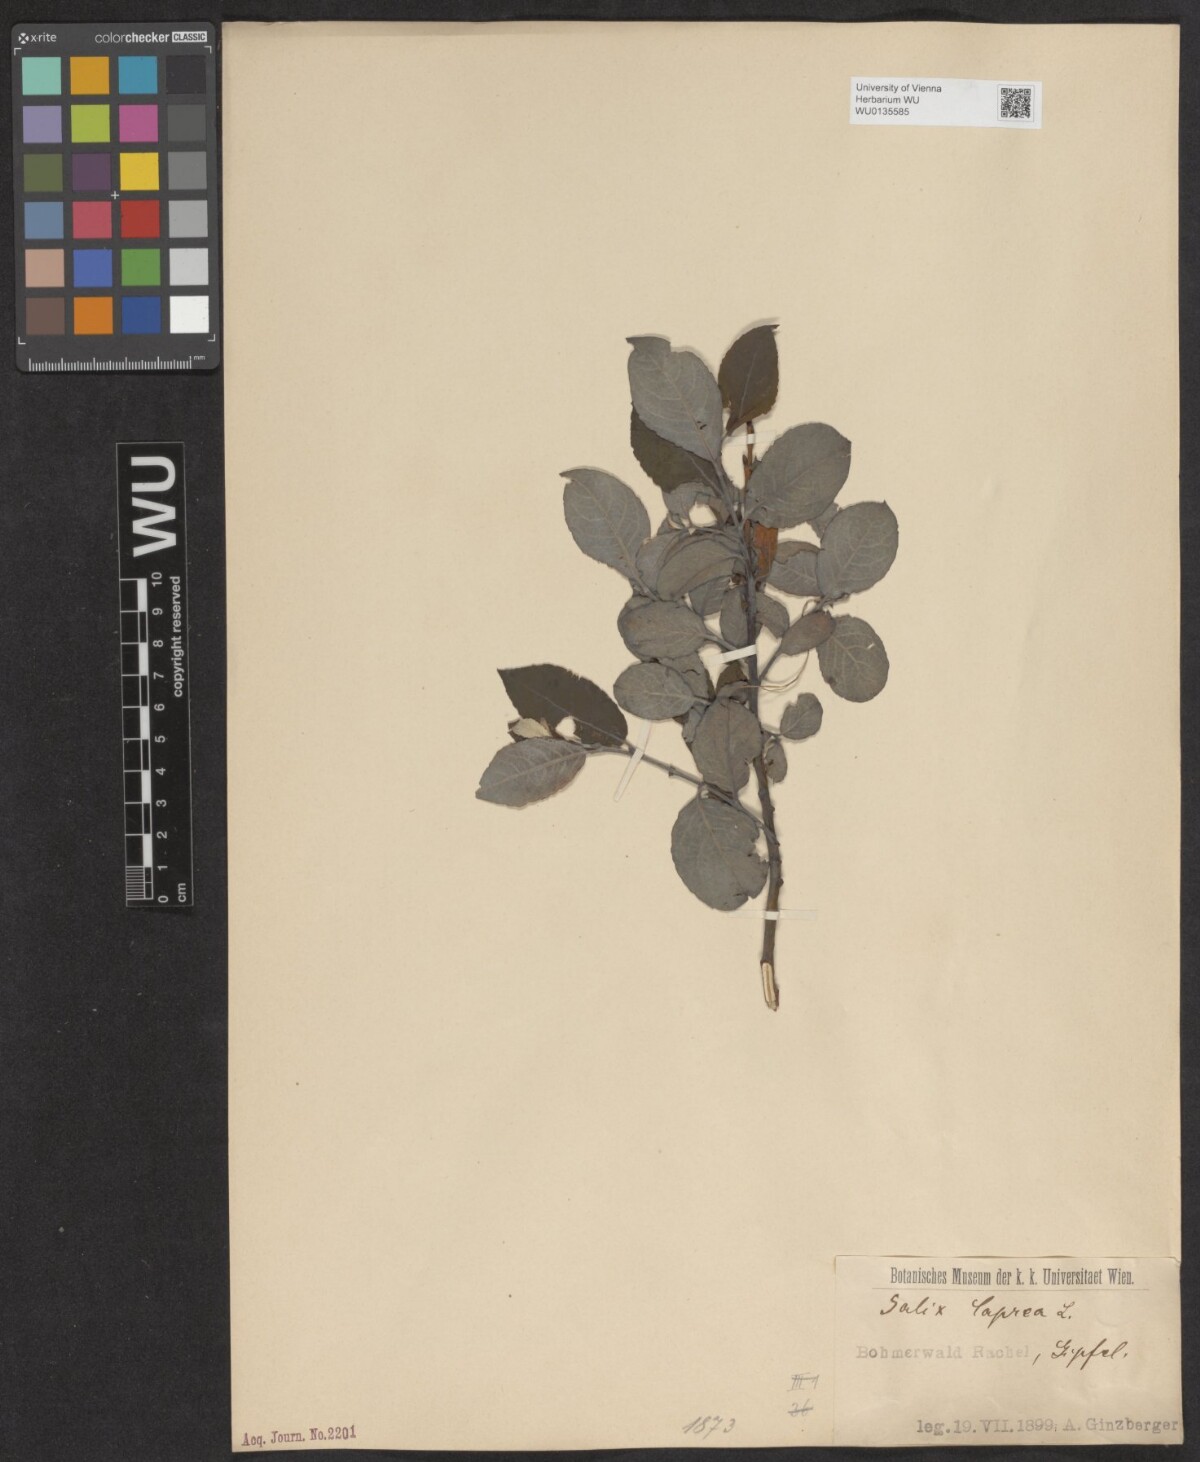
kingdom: Plantae
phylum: Tracheophyta
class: Magnoliopsida
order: Malpighiales
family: Salicaceae
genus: Salix
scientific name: Salix caprea
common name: Goat willow
